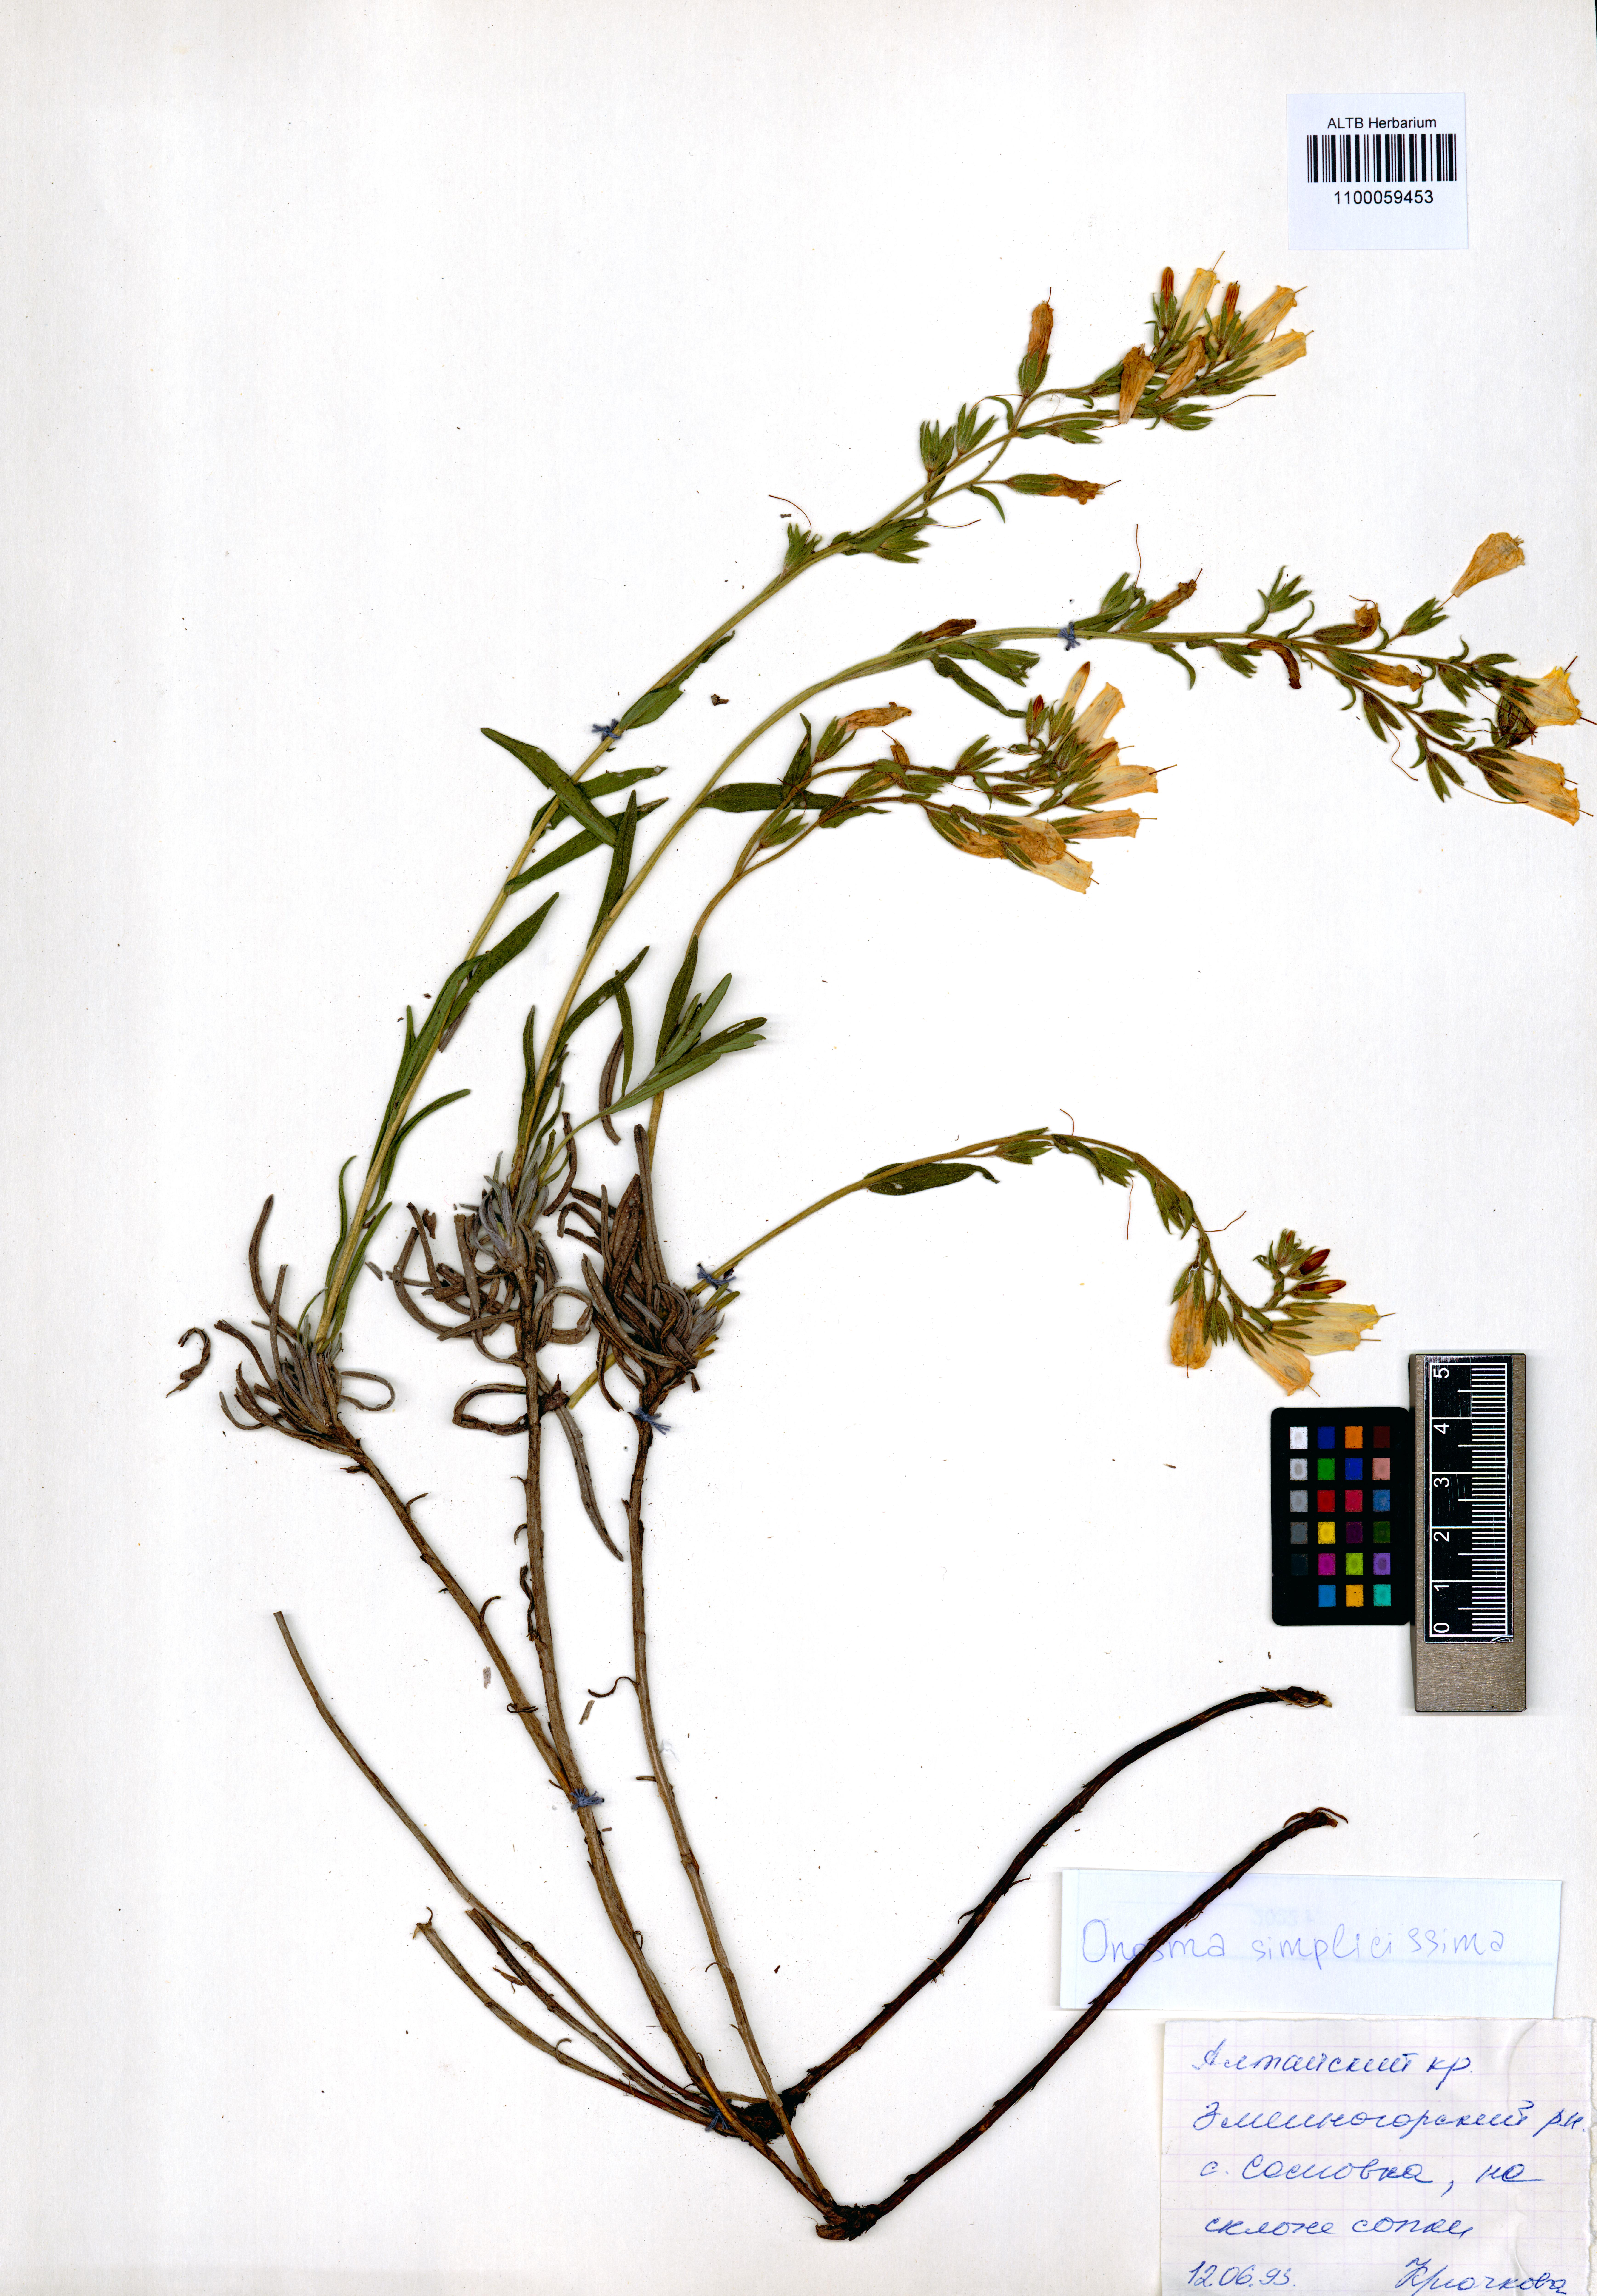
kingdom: Plantae
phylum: Tracheophyta
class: Magnoliopsida
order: Boraginales
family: Boraginaceae
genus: Onosma
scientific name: Onosma simplicissima
